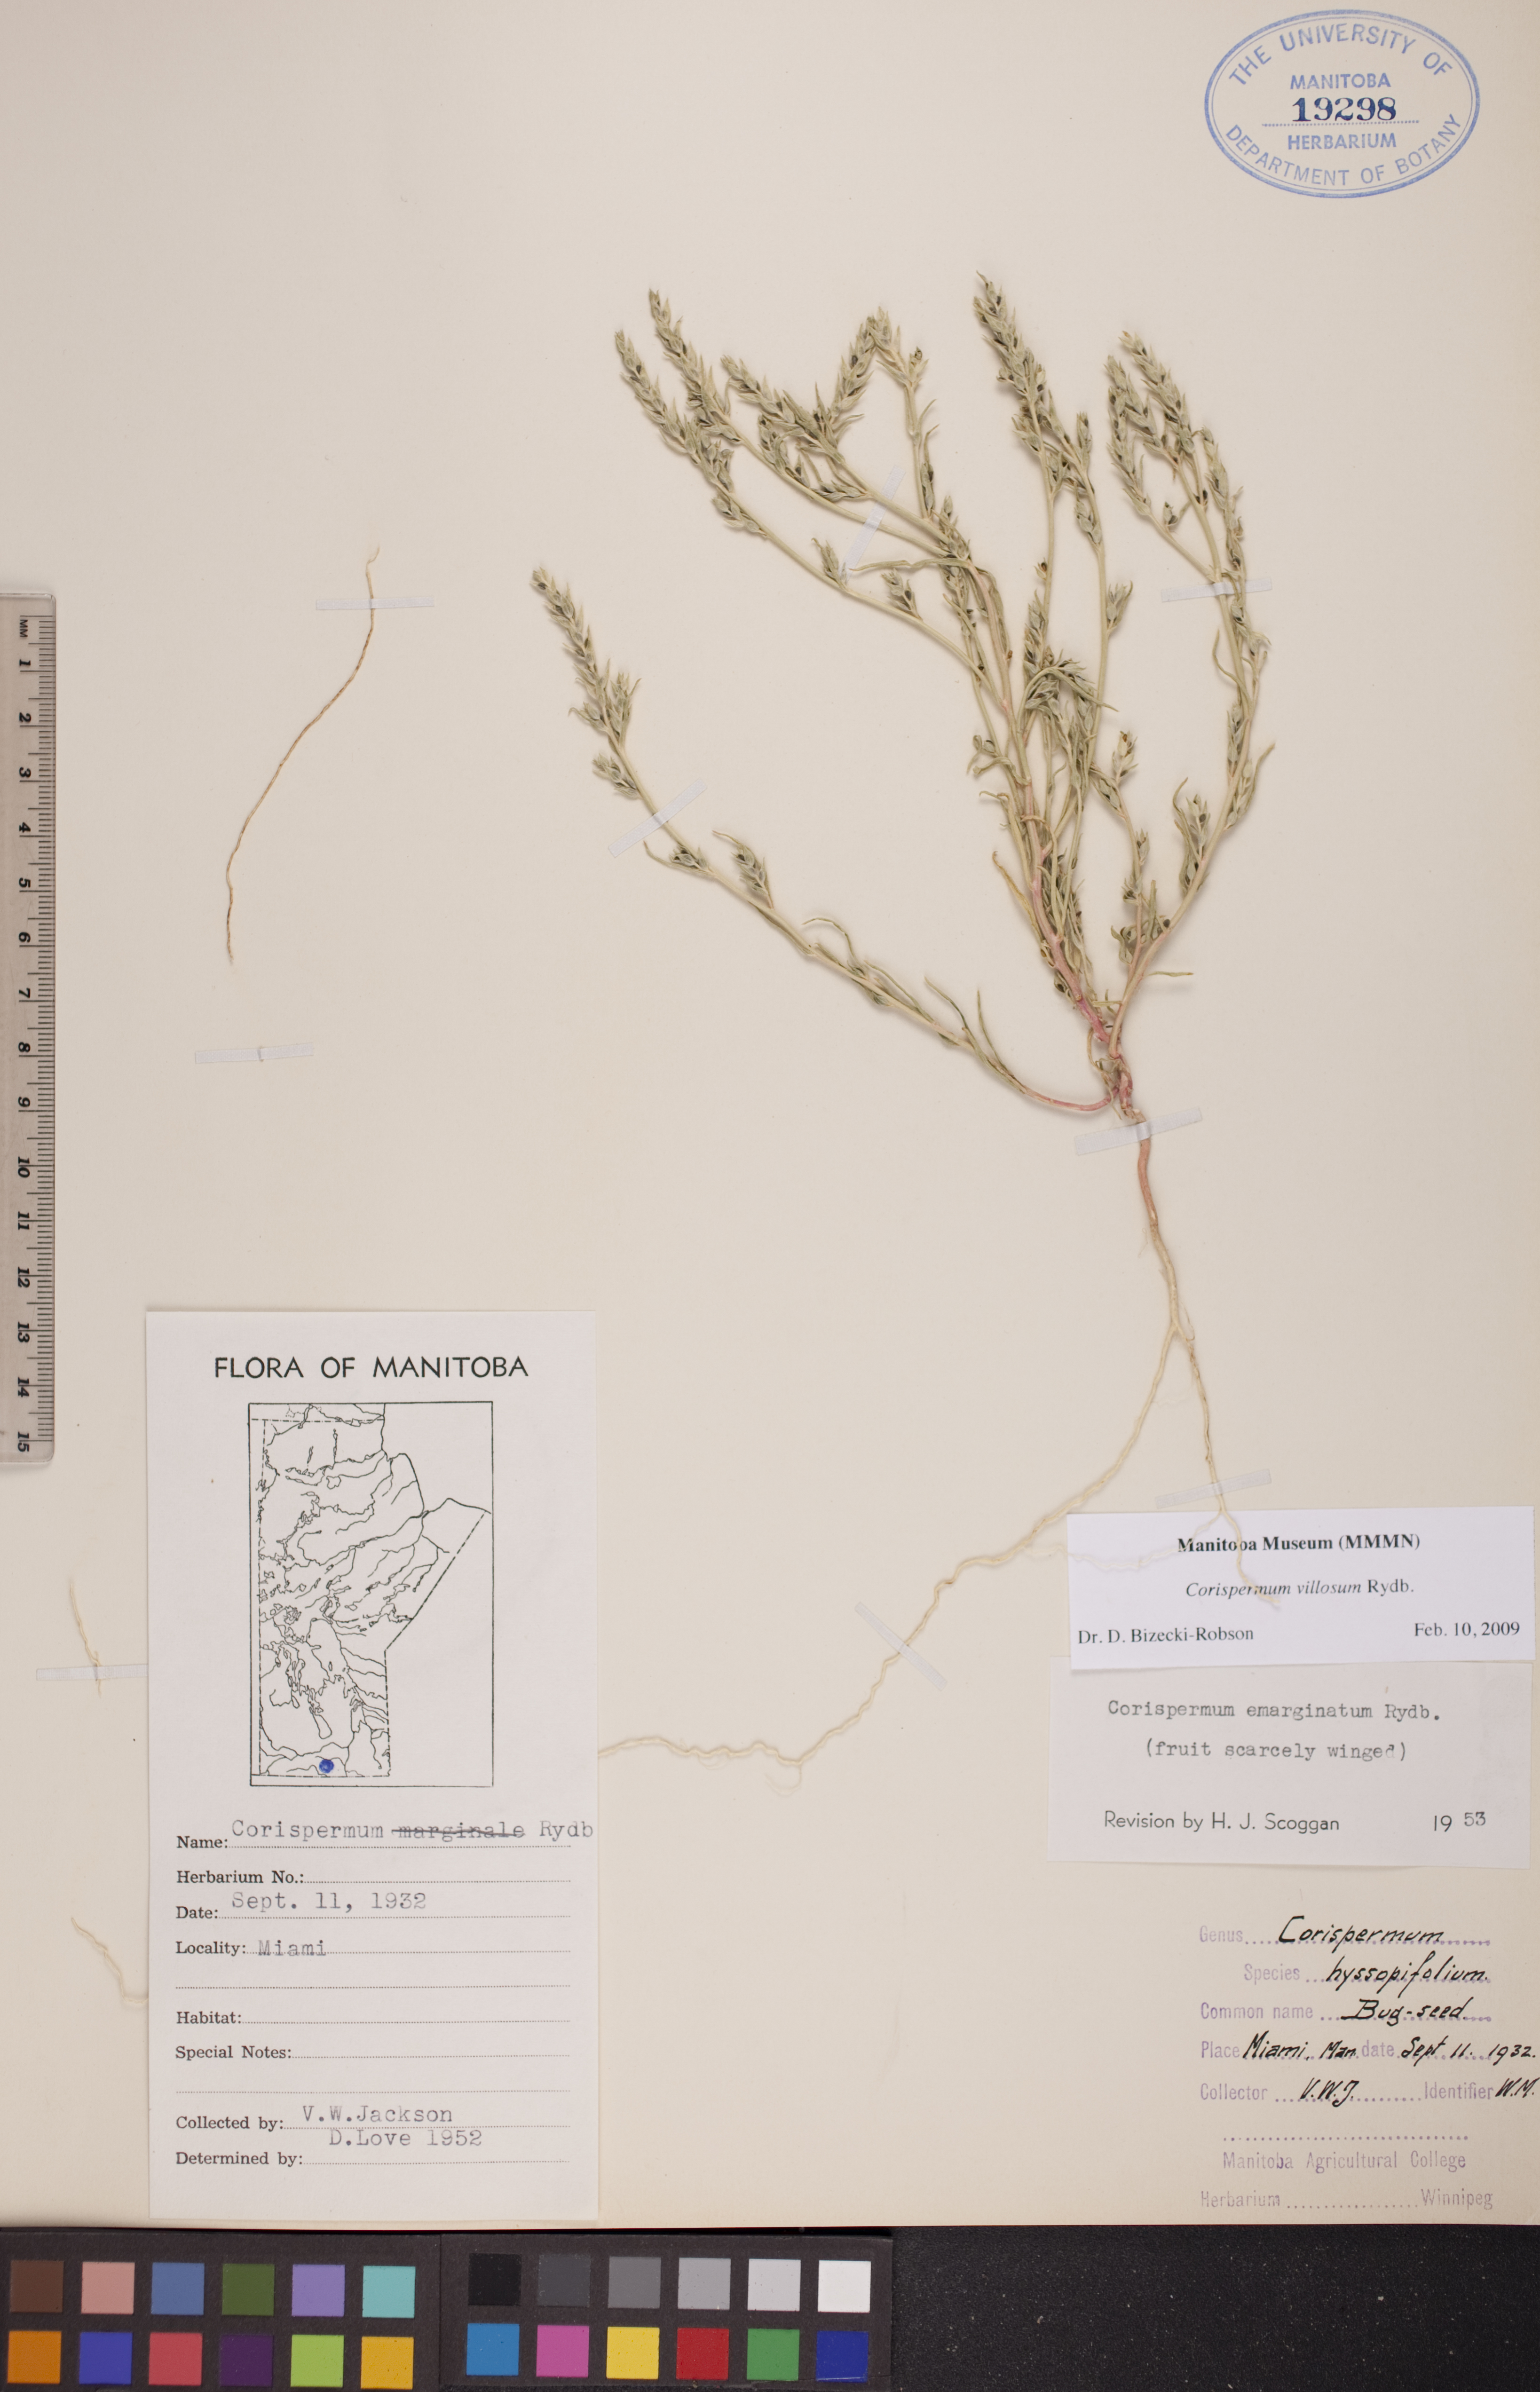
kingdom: Plantae
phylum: Tracheophyta
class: Magnoliopsida
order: Caryophyllales
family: Amaranthaceae
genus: Corispermum
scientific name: Corispermum villosum
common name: Hairy bugseed
